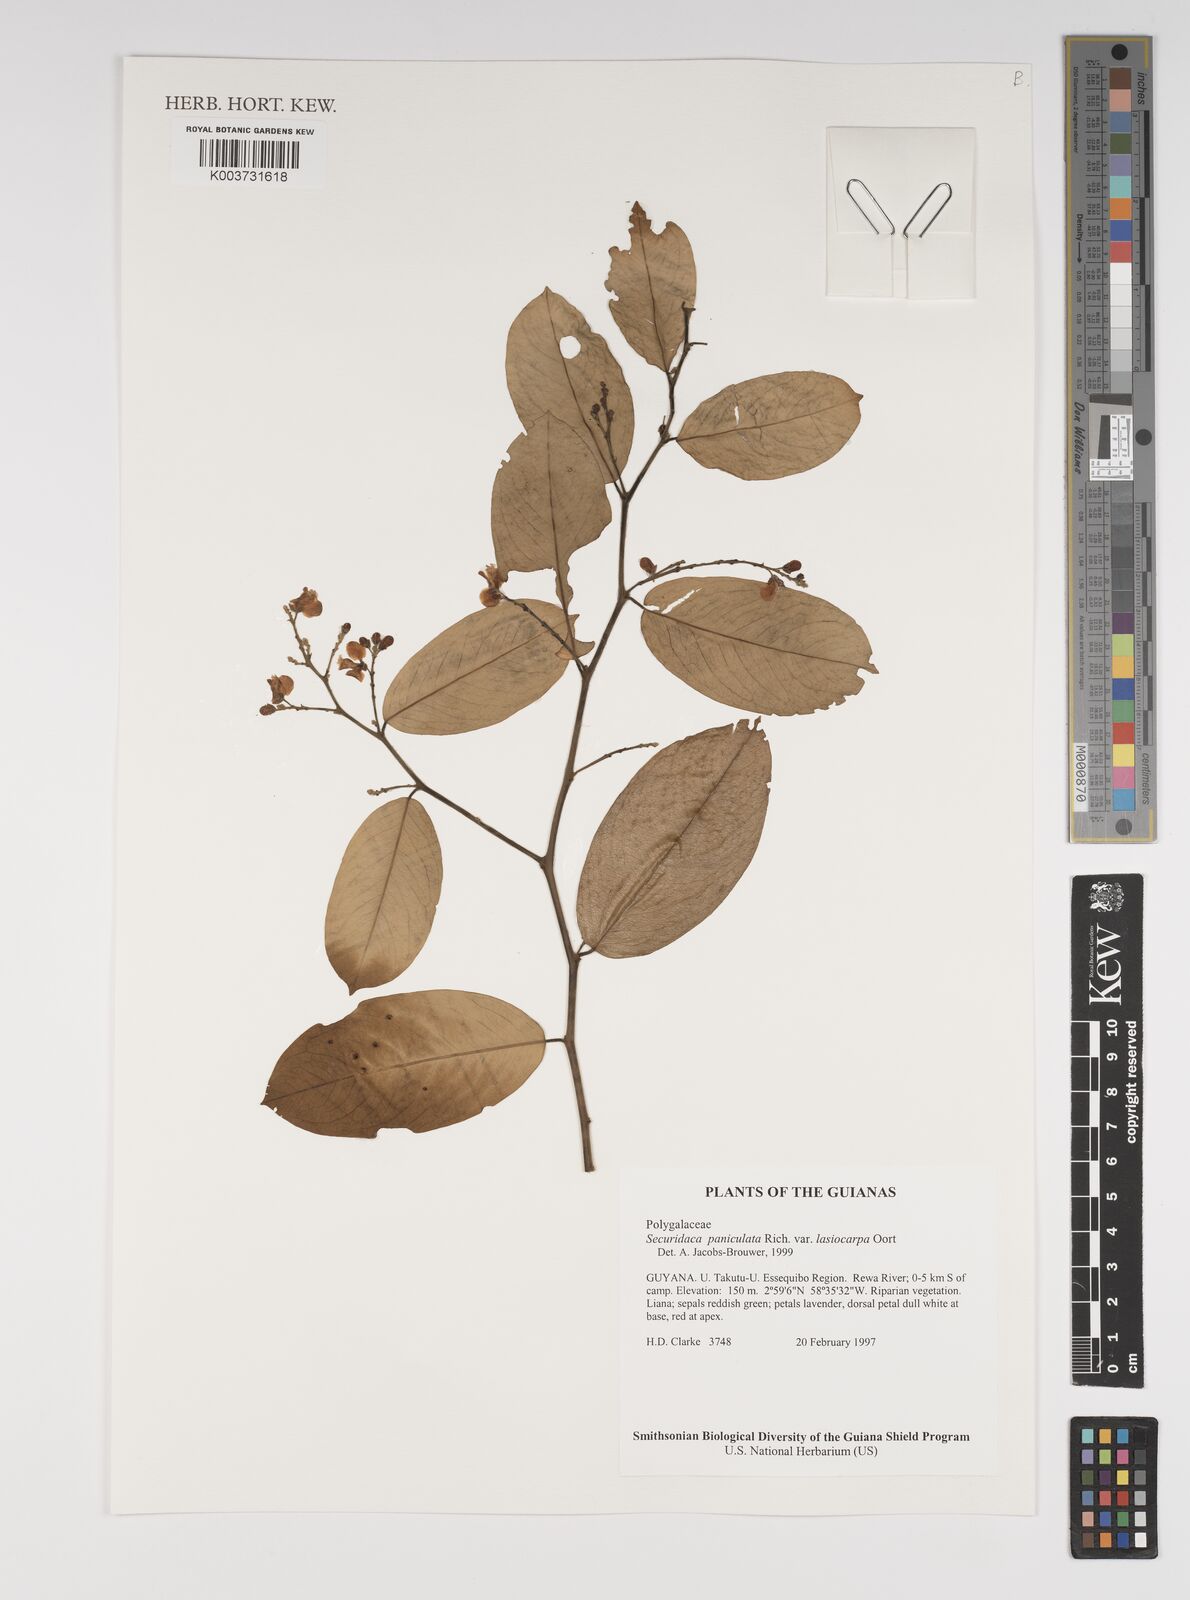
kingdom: Plantae
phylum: Tracheophyta
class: Magnoliopsida
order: Fabales
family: Polygalaceae
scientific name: Polygalaceae
